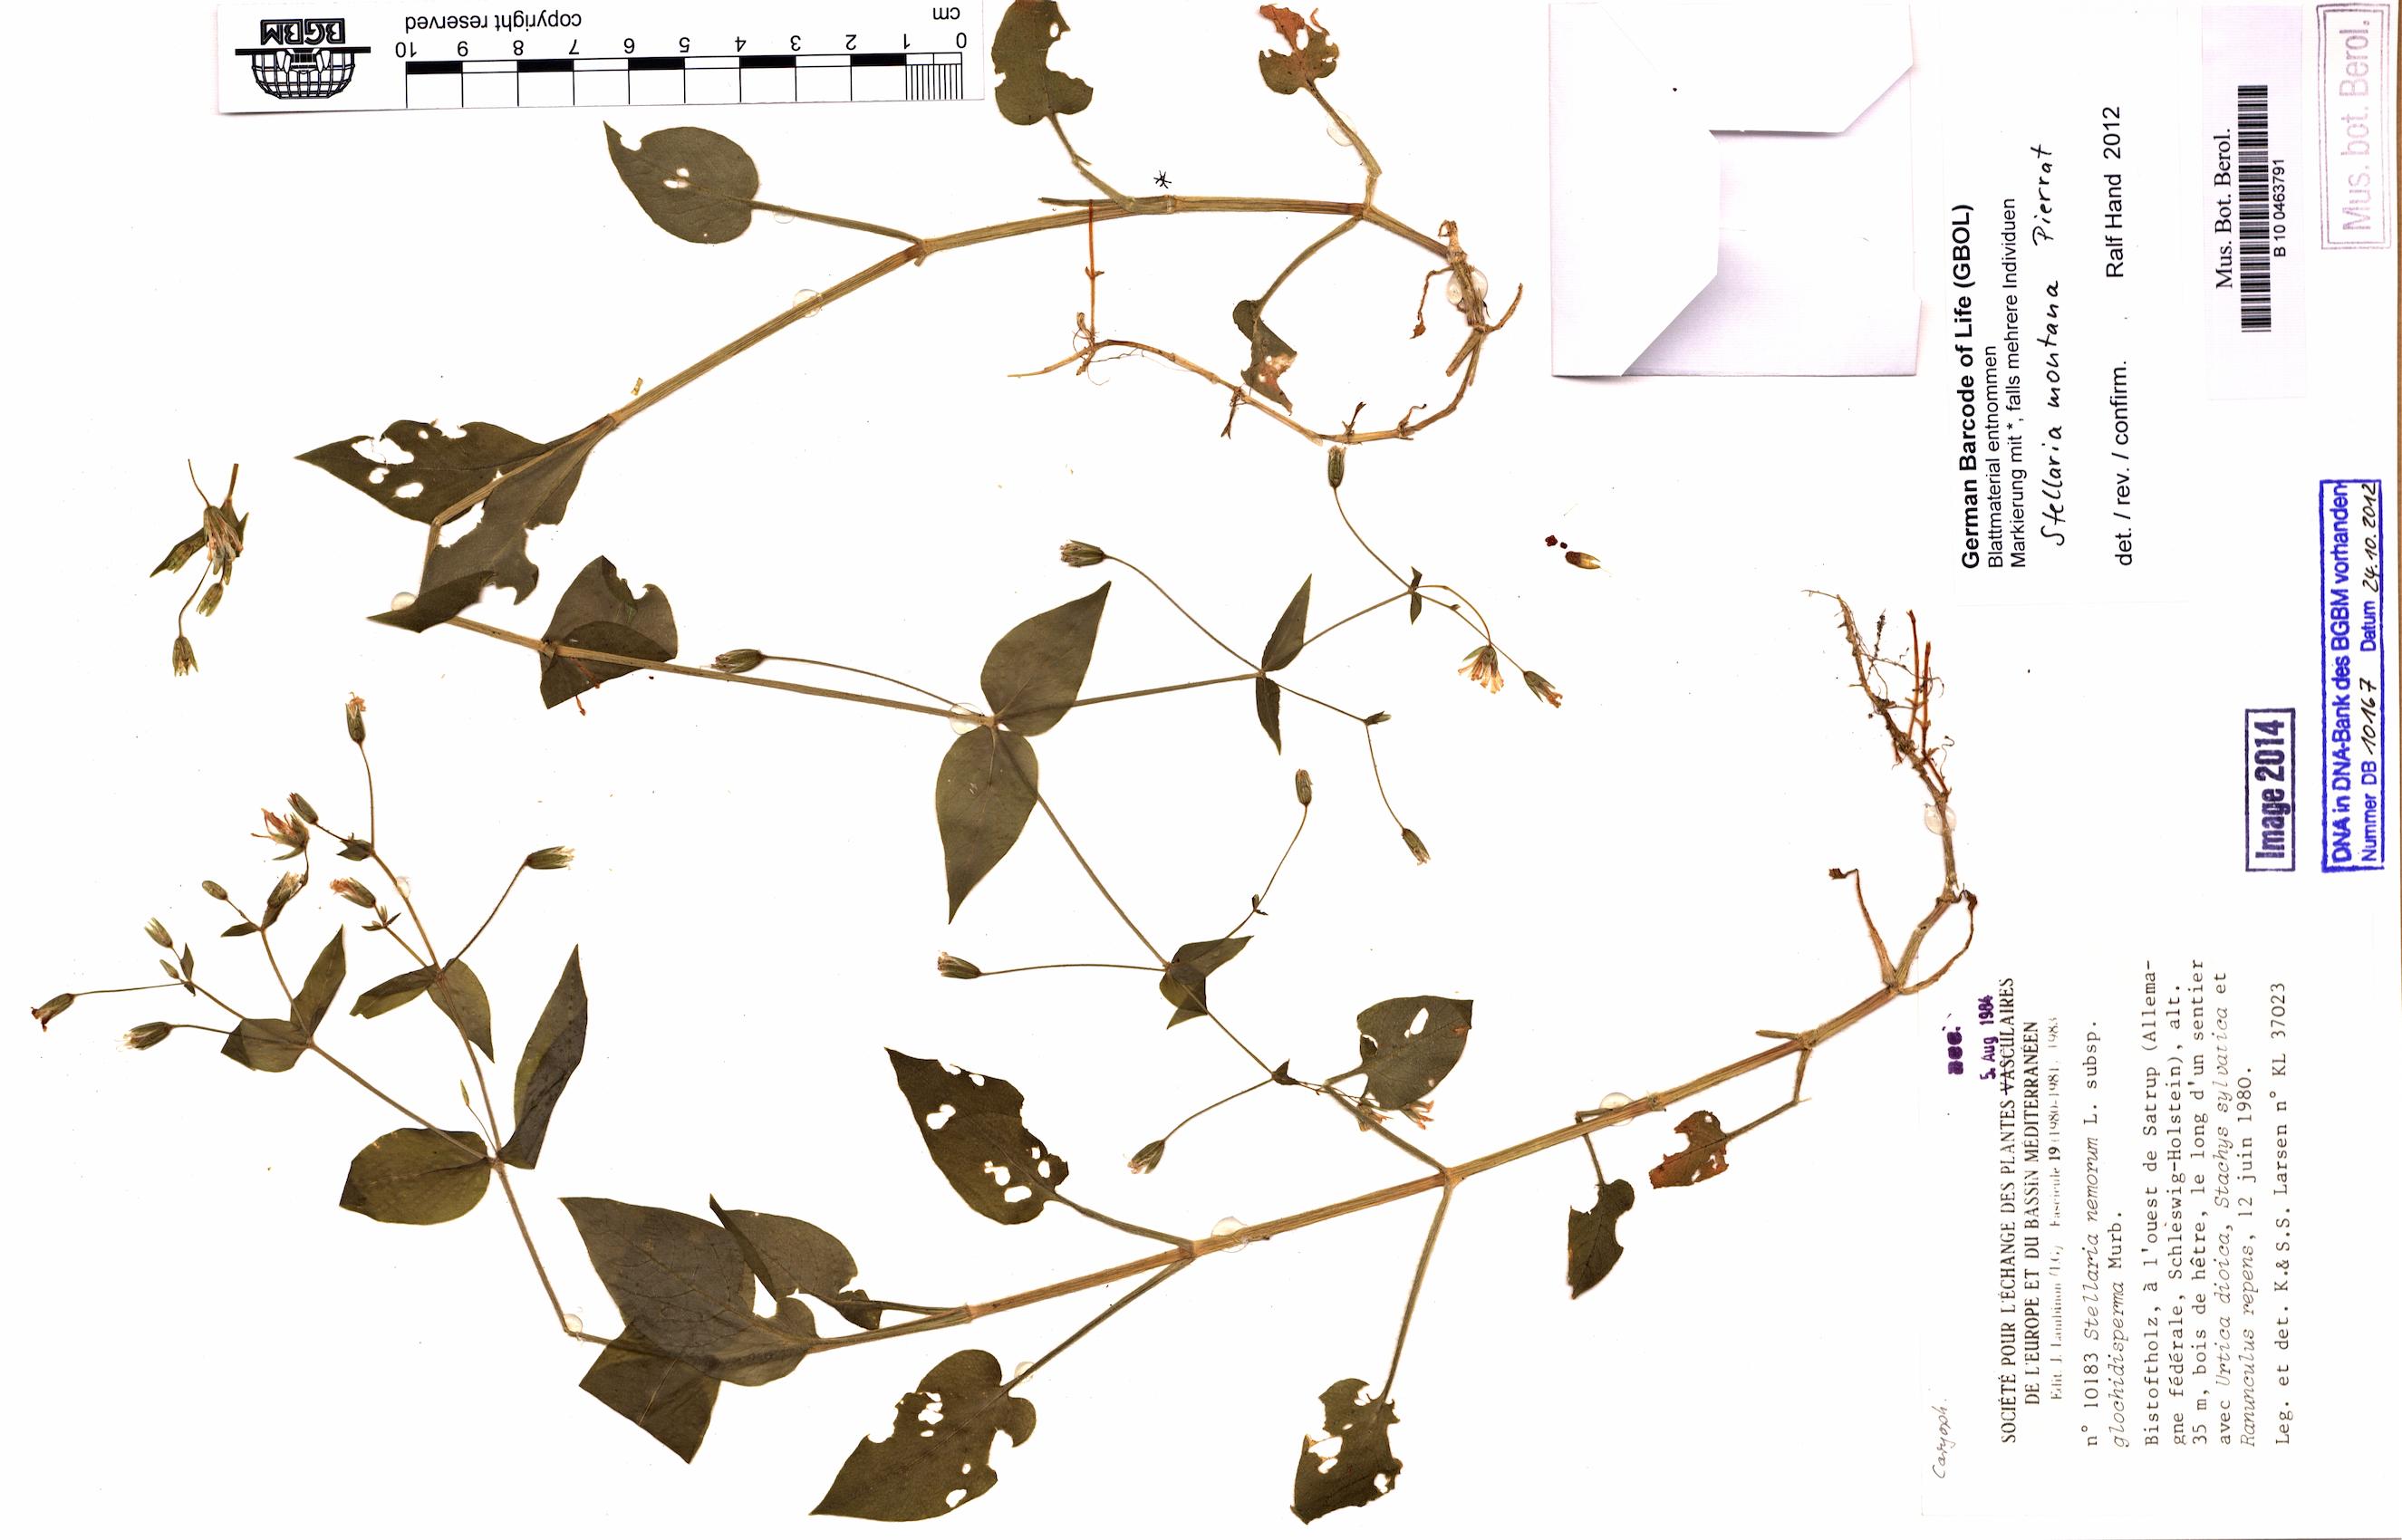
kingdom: Plantae
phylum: Tracheophyta
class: Magnoliopsida
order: Caryophyllales
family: Caryophyllaceae
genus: Stellaria
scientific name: Stellaria glochidisperma
